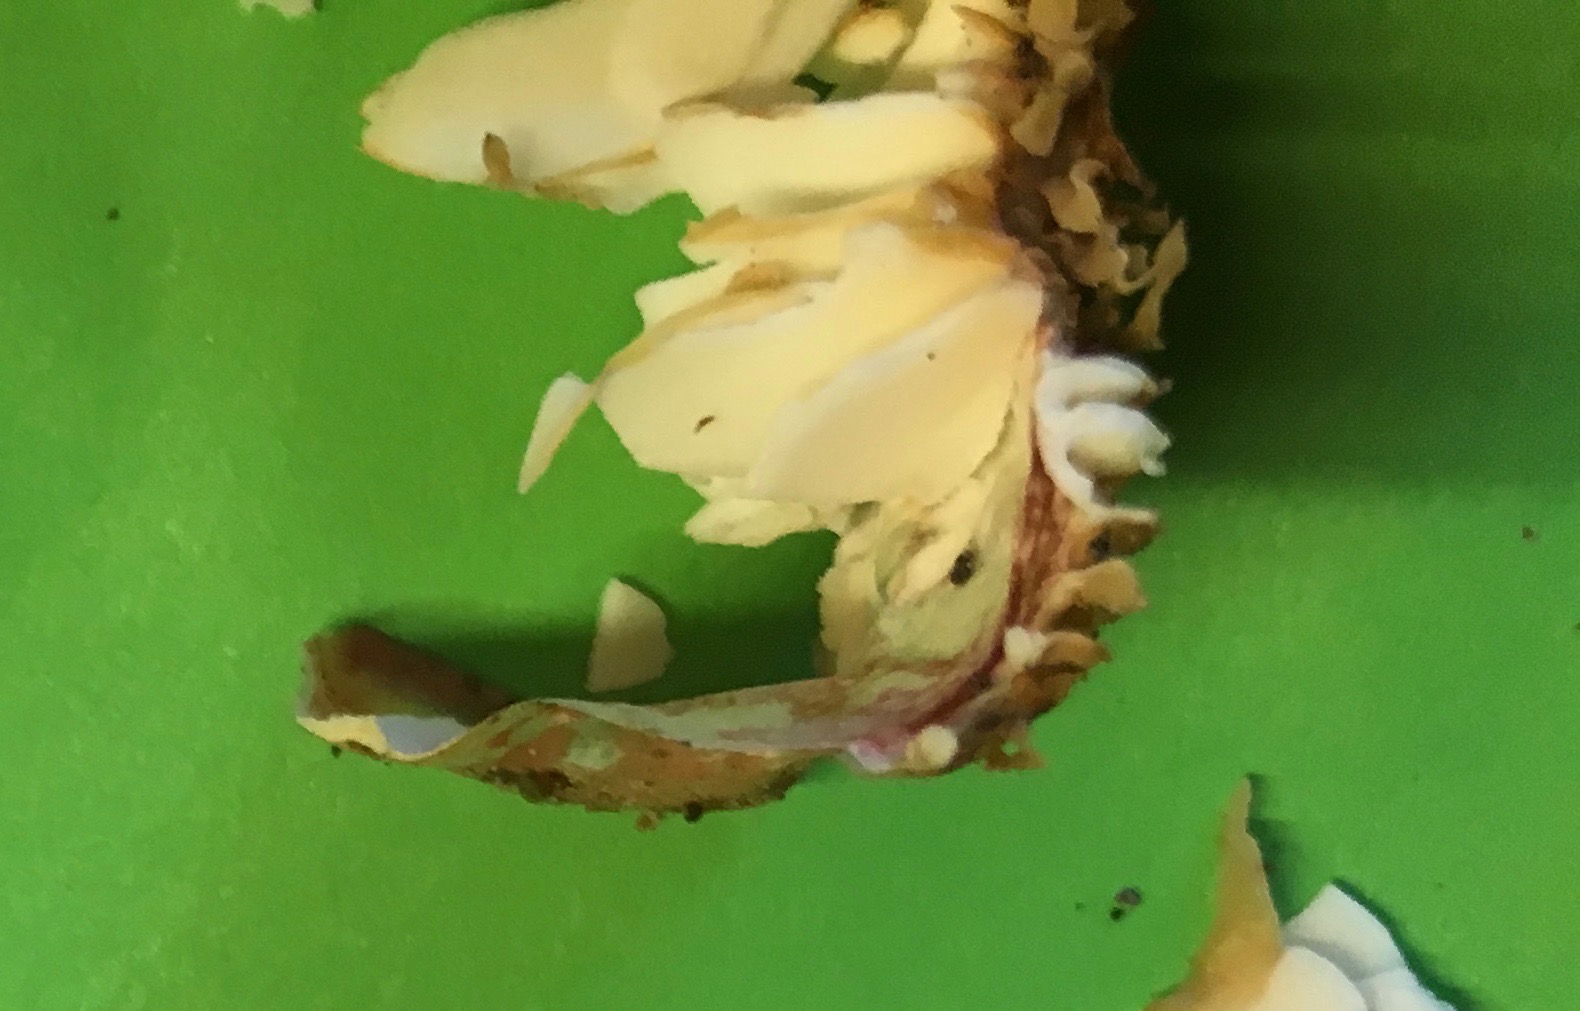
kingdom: Fungi
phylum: Basidiomycota
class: Agaricomycetes
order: Russulales
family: Russulaceae
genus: Russula
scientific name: Russula nobilis
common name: lille gift-skørhat
